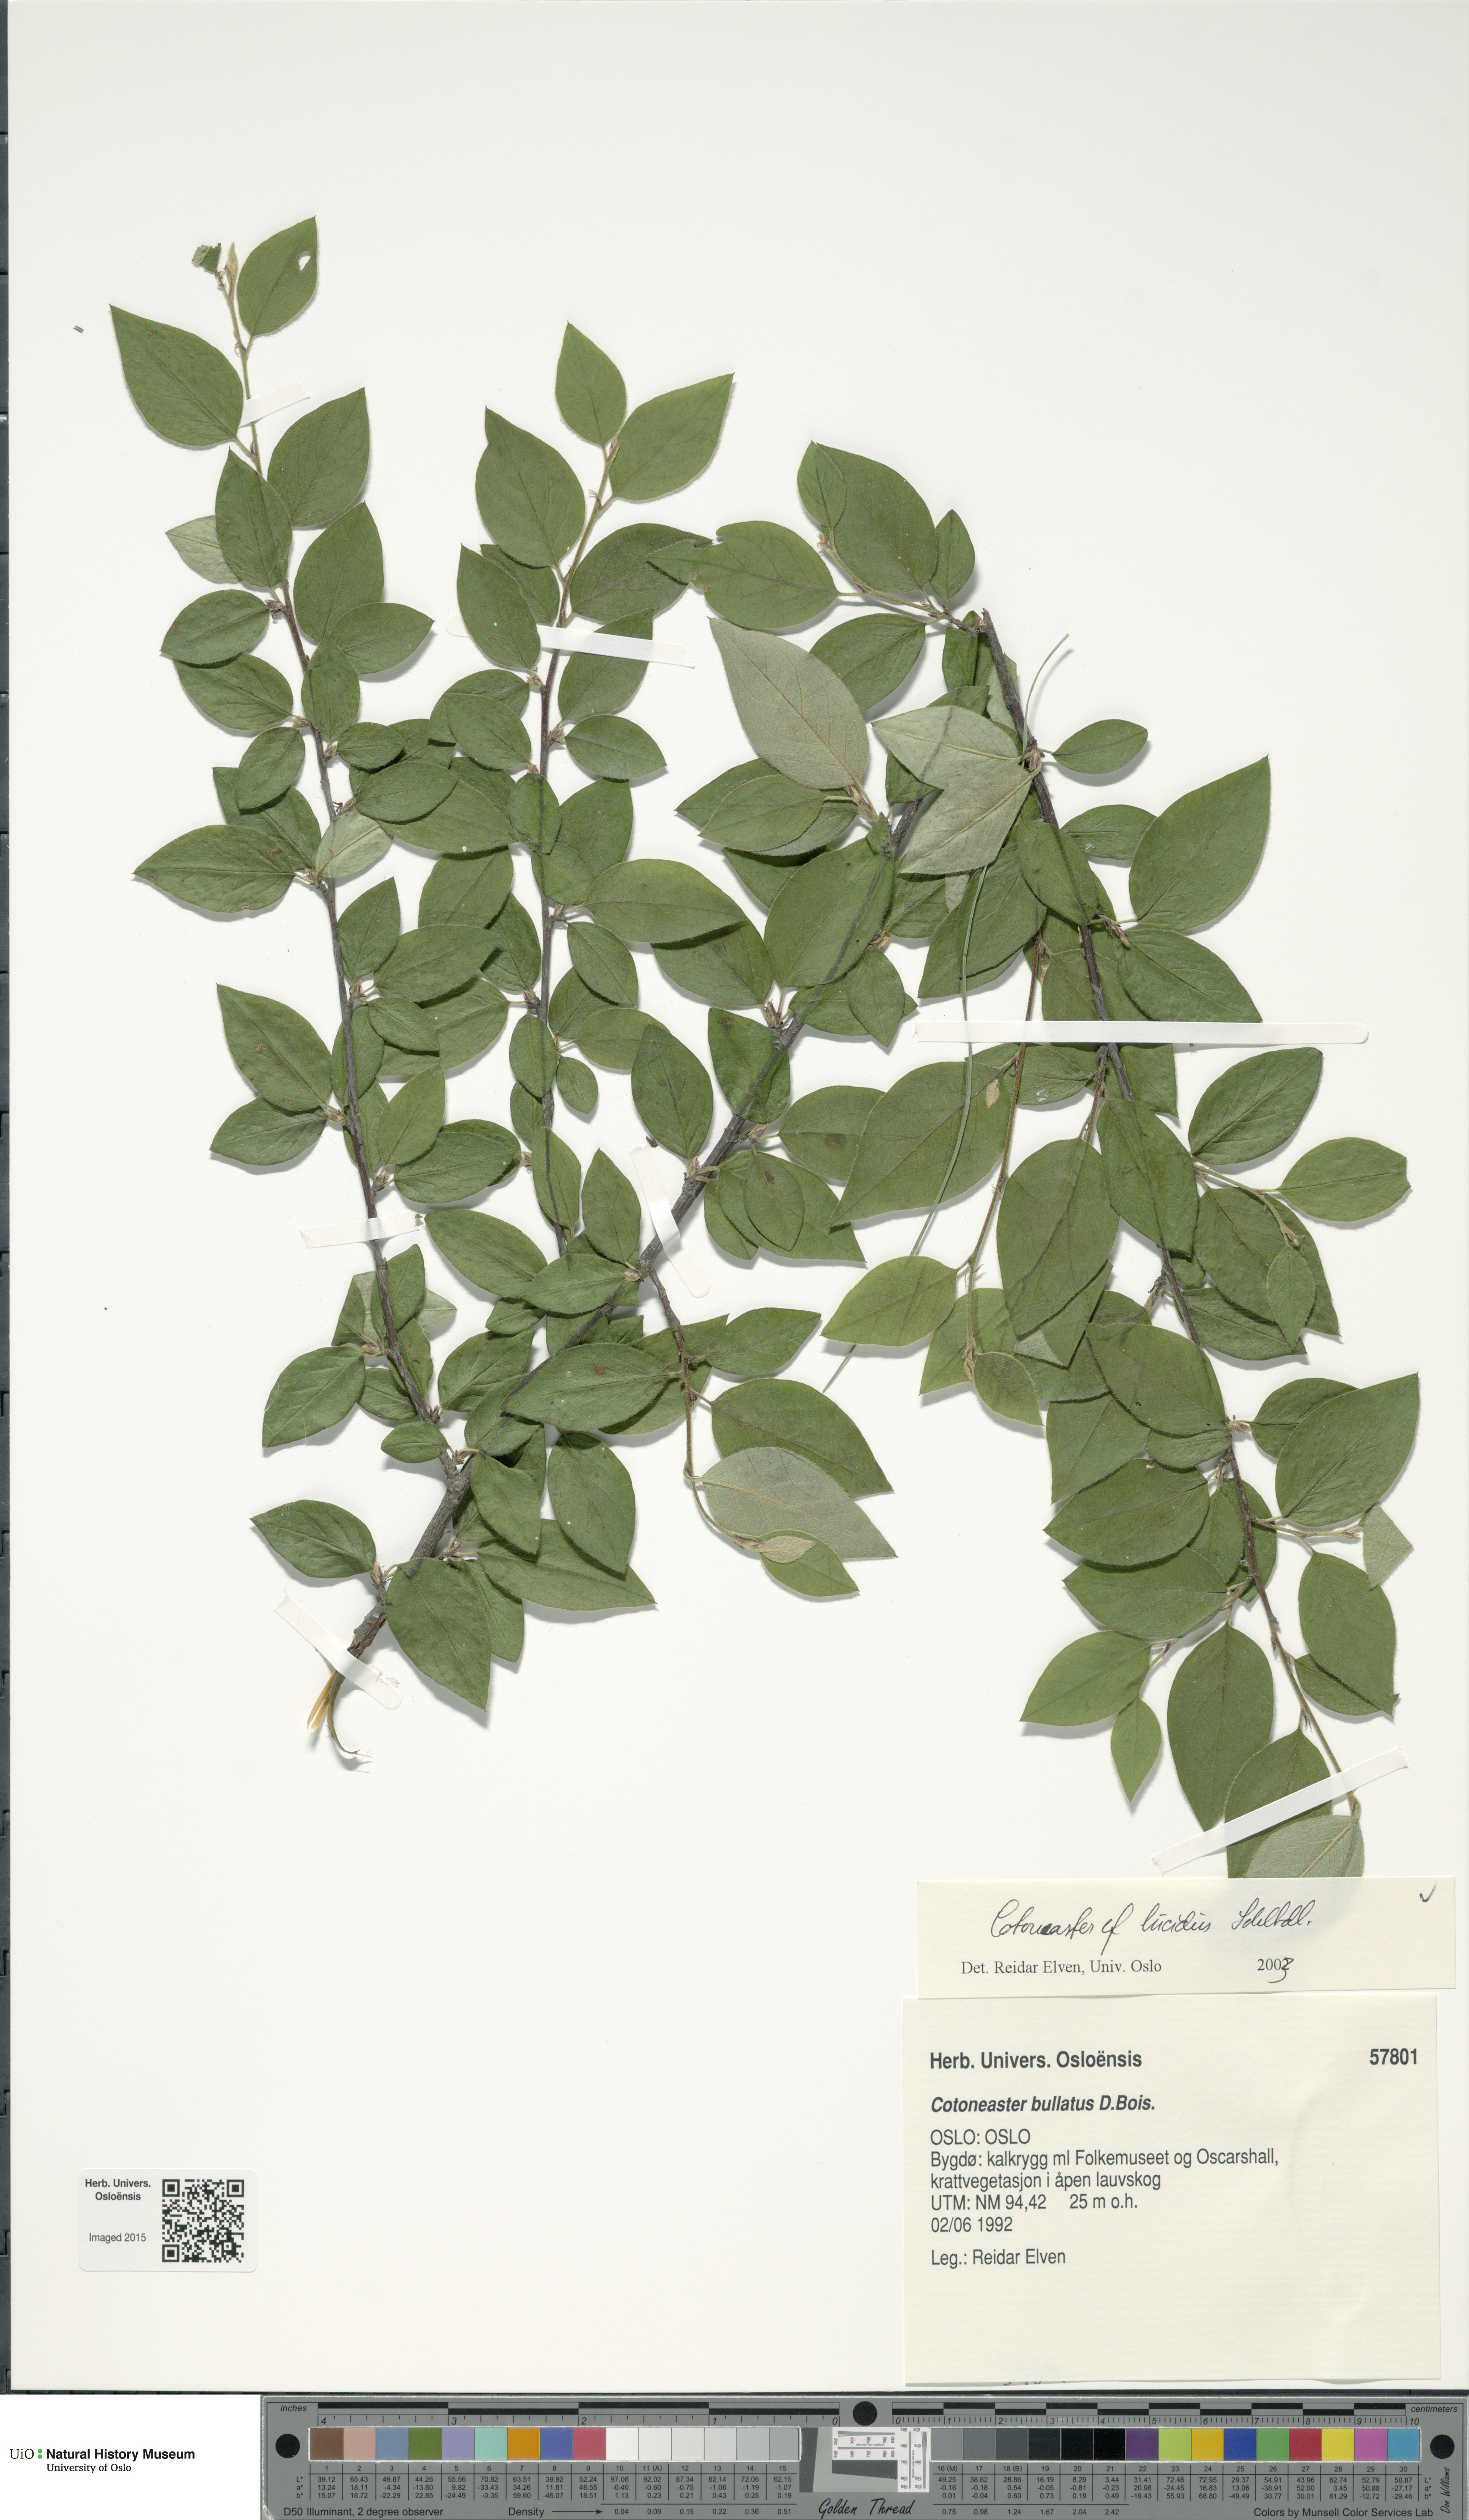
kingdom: Plantae
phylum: Tracheophyta
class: Magnoliopsida
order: Rosales
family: Rosaceae
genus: Cotoneaster
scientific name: Cotoneaster acutifolius
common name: Peking cotoneaster
